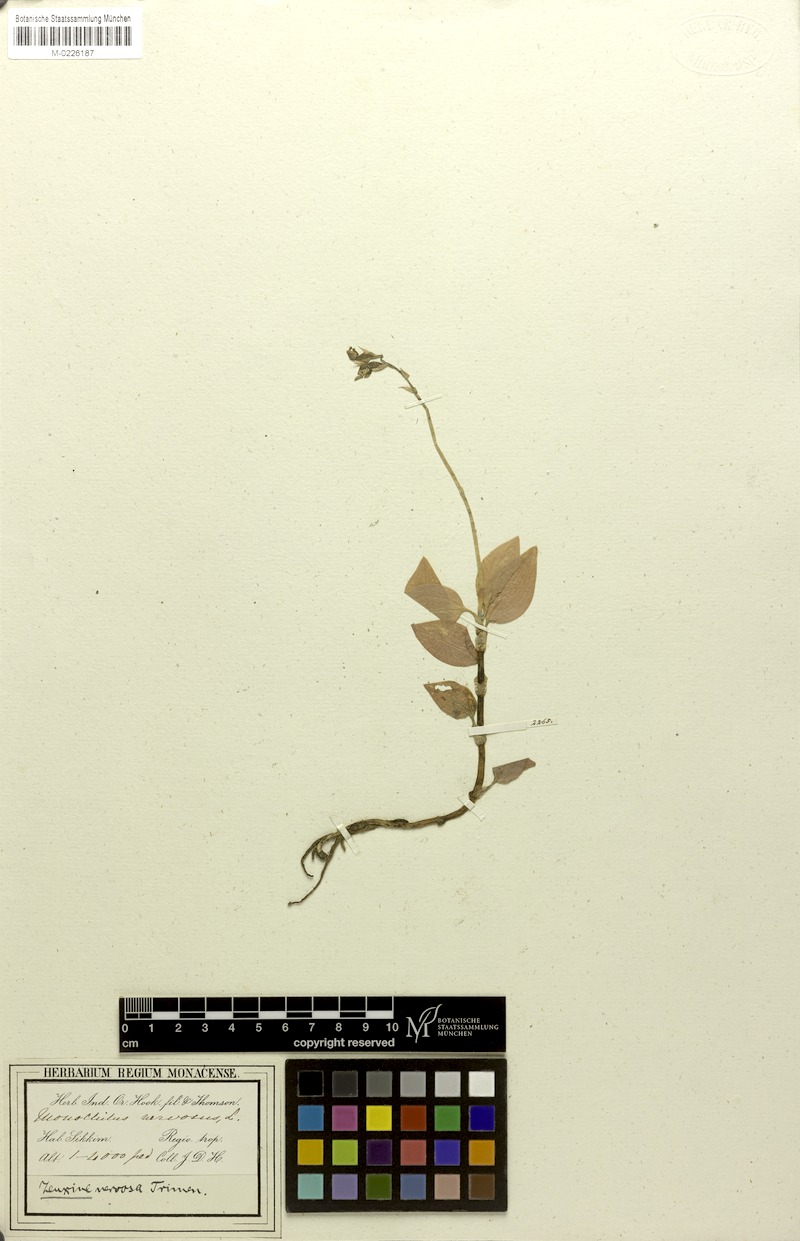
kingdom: Plantae
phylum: Tracheophyta
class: Liliopsida
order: Asparagales
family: Orchidaceae
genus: Zeuxine
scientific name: Zeuxine nervosa
